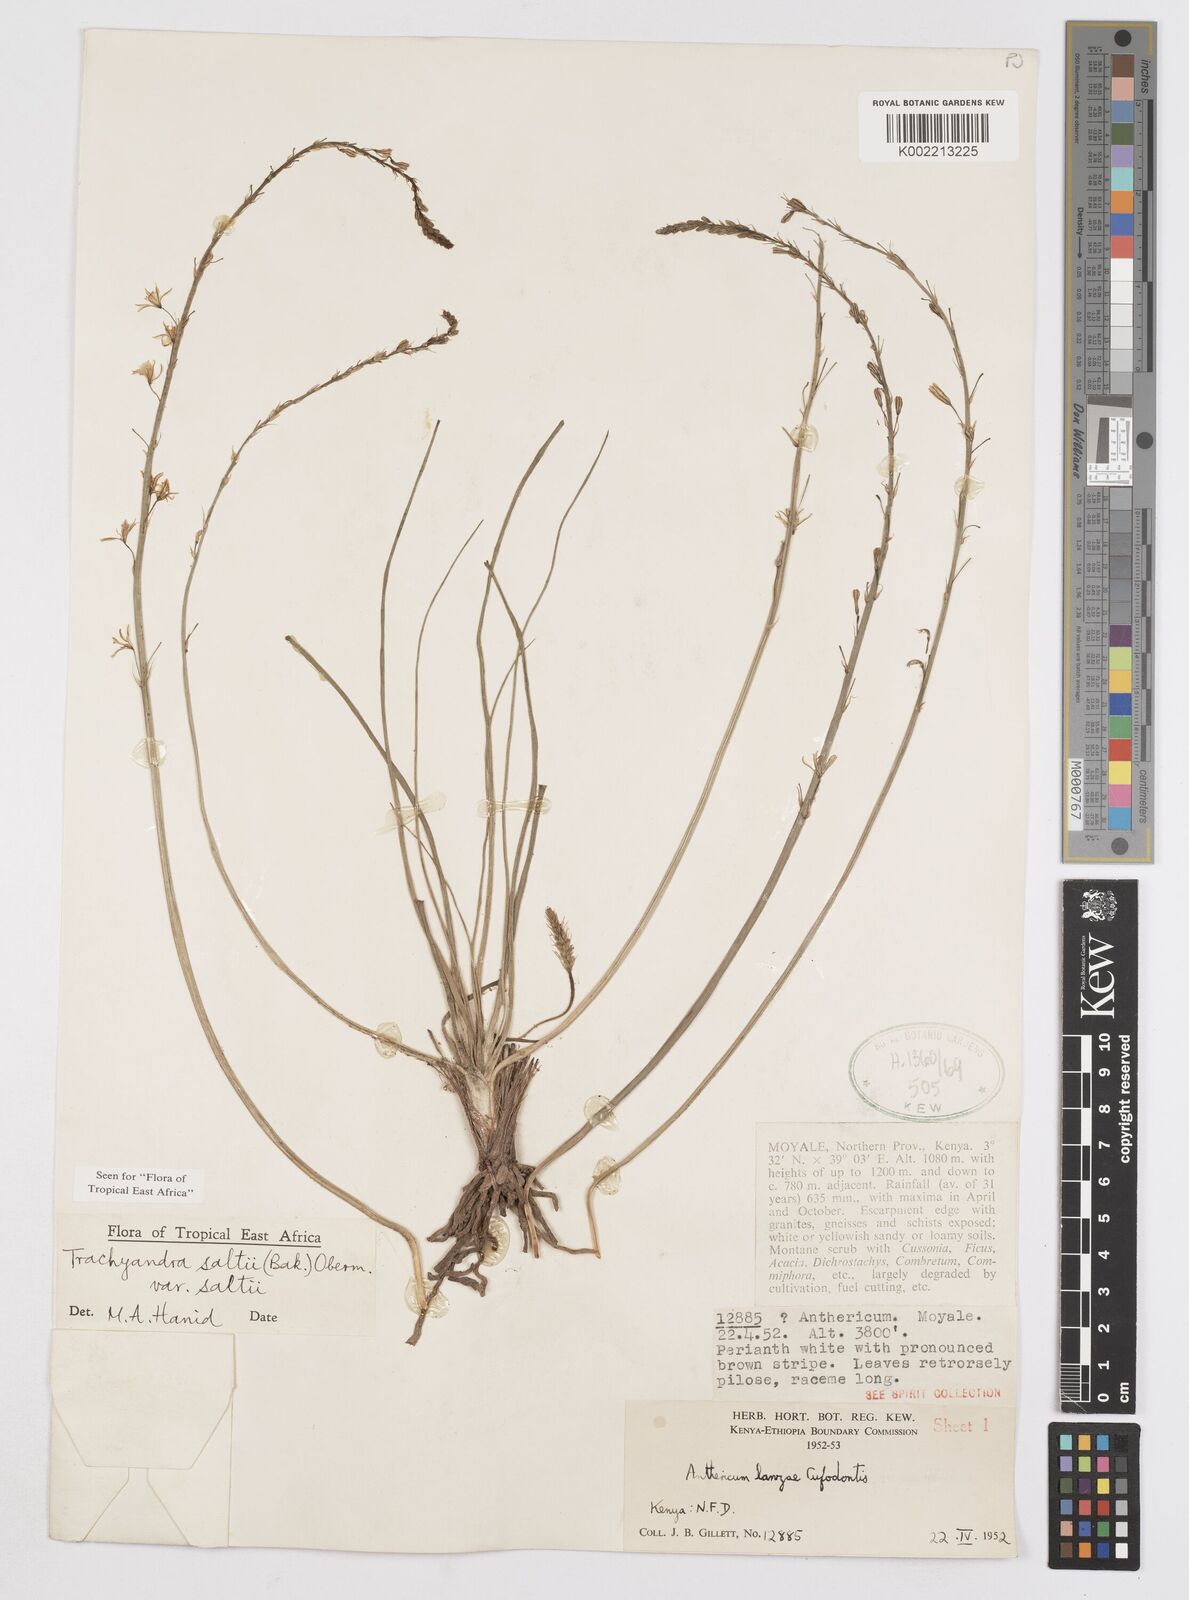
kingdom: Plantae
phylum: Tracheophyta
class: Liliopsida
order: Asparagales
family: Asphodelaceae
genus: Trachyandra
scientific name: Trachyandra saltii
